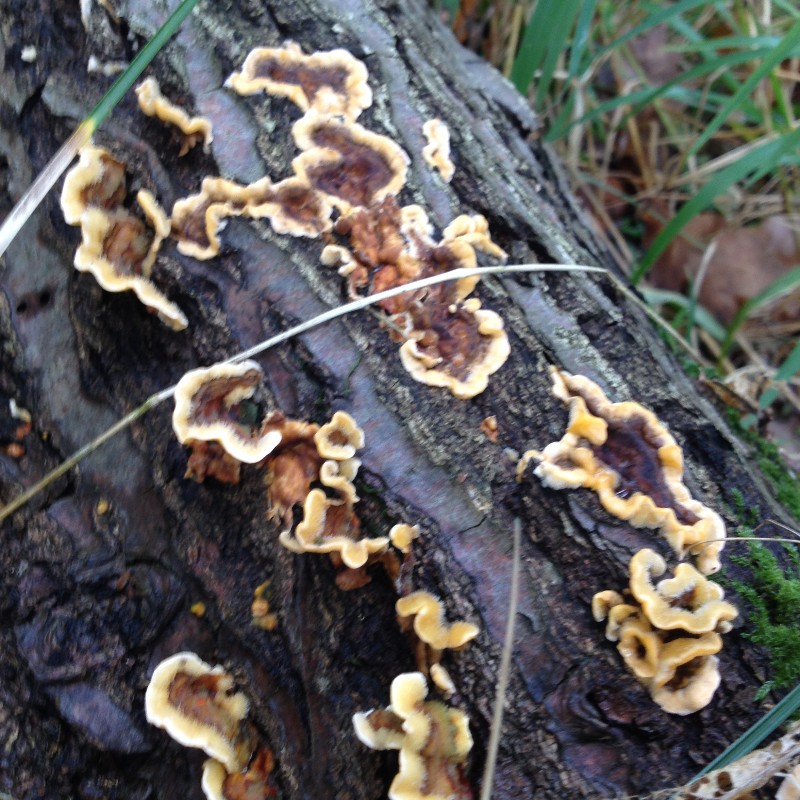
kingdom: Fungi
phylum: Basidiomycota
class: Agaricomycetes
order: Russulales
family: Stereaceae
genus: Stereum
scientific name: Stereum hirsutum
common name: håret lædersvamp
